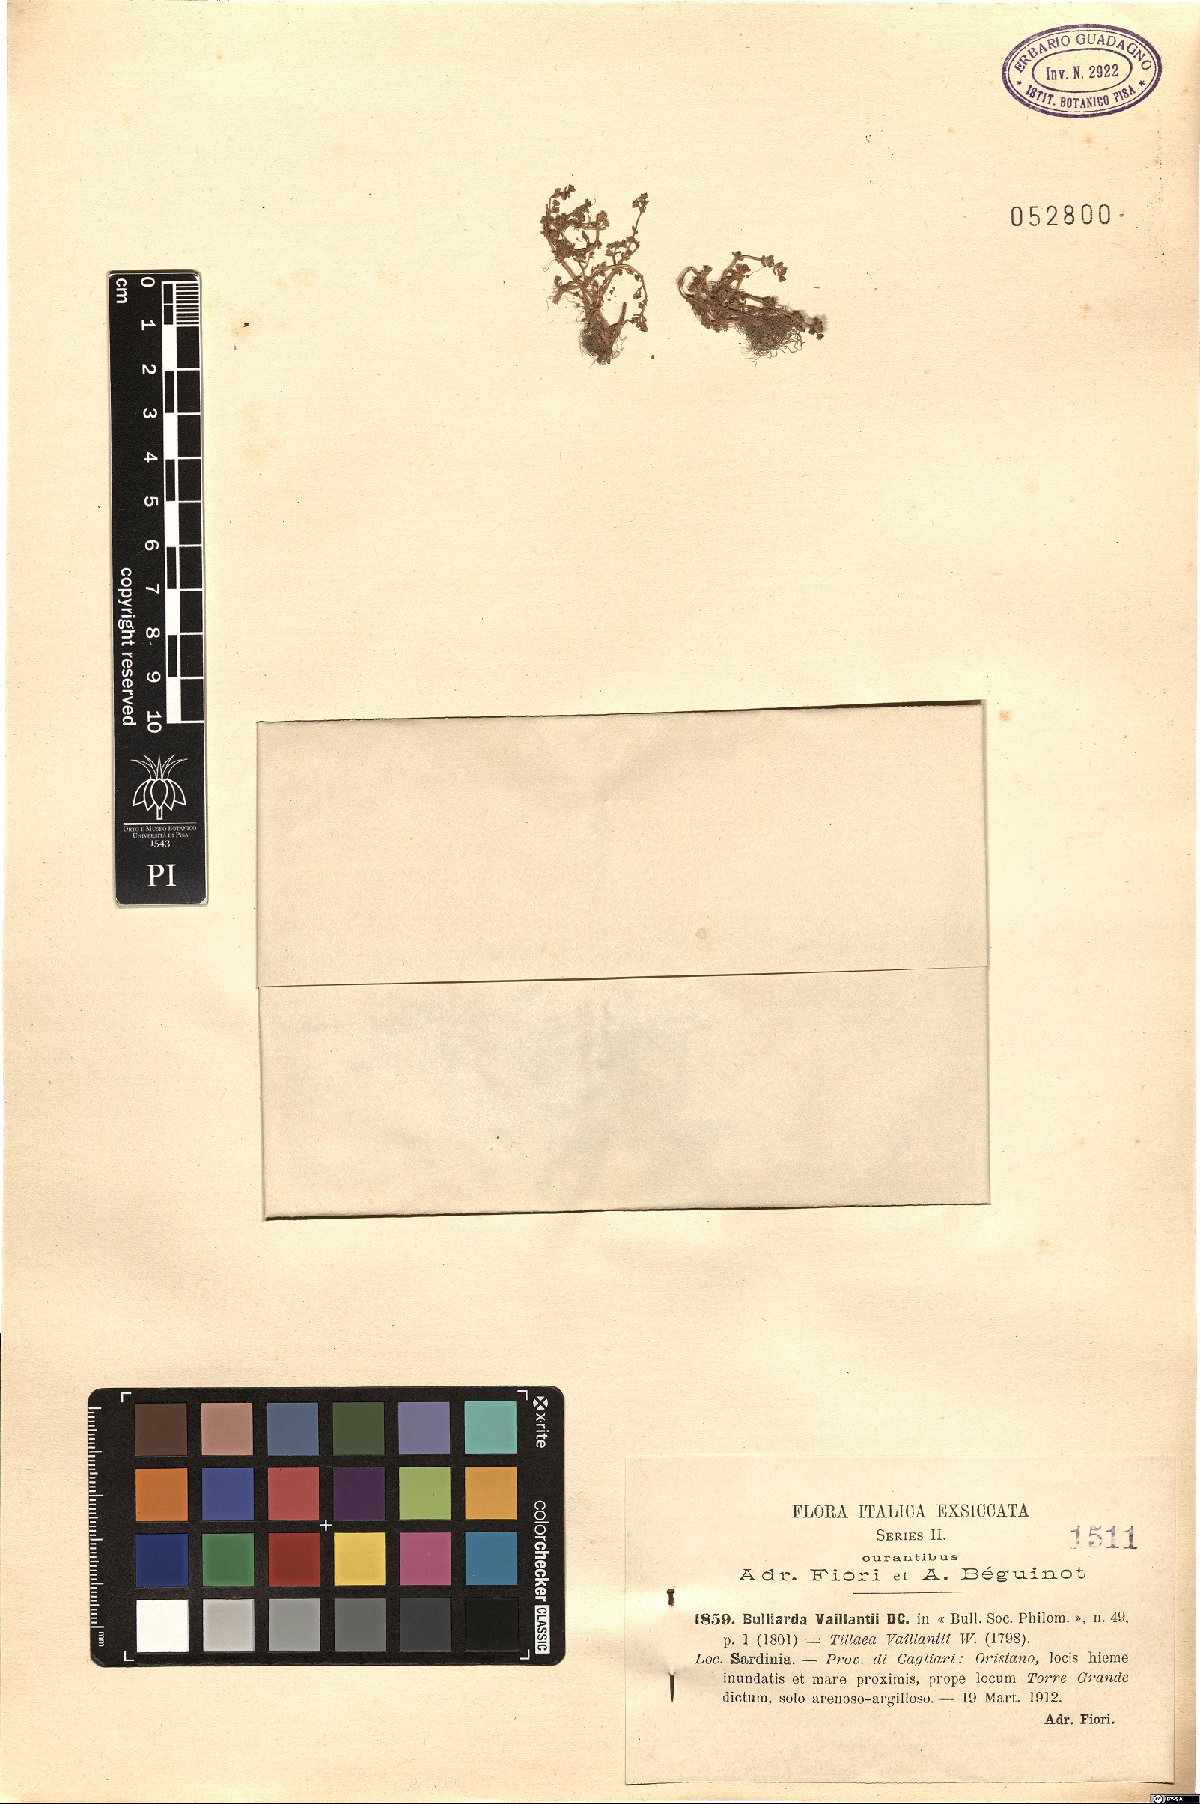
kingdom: Plantae
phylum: Tracheophyta
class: Magnoliopsida
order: Saxifragales
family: Crassulaceae
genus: Crassula
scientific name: Crassula vaillantii
